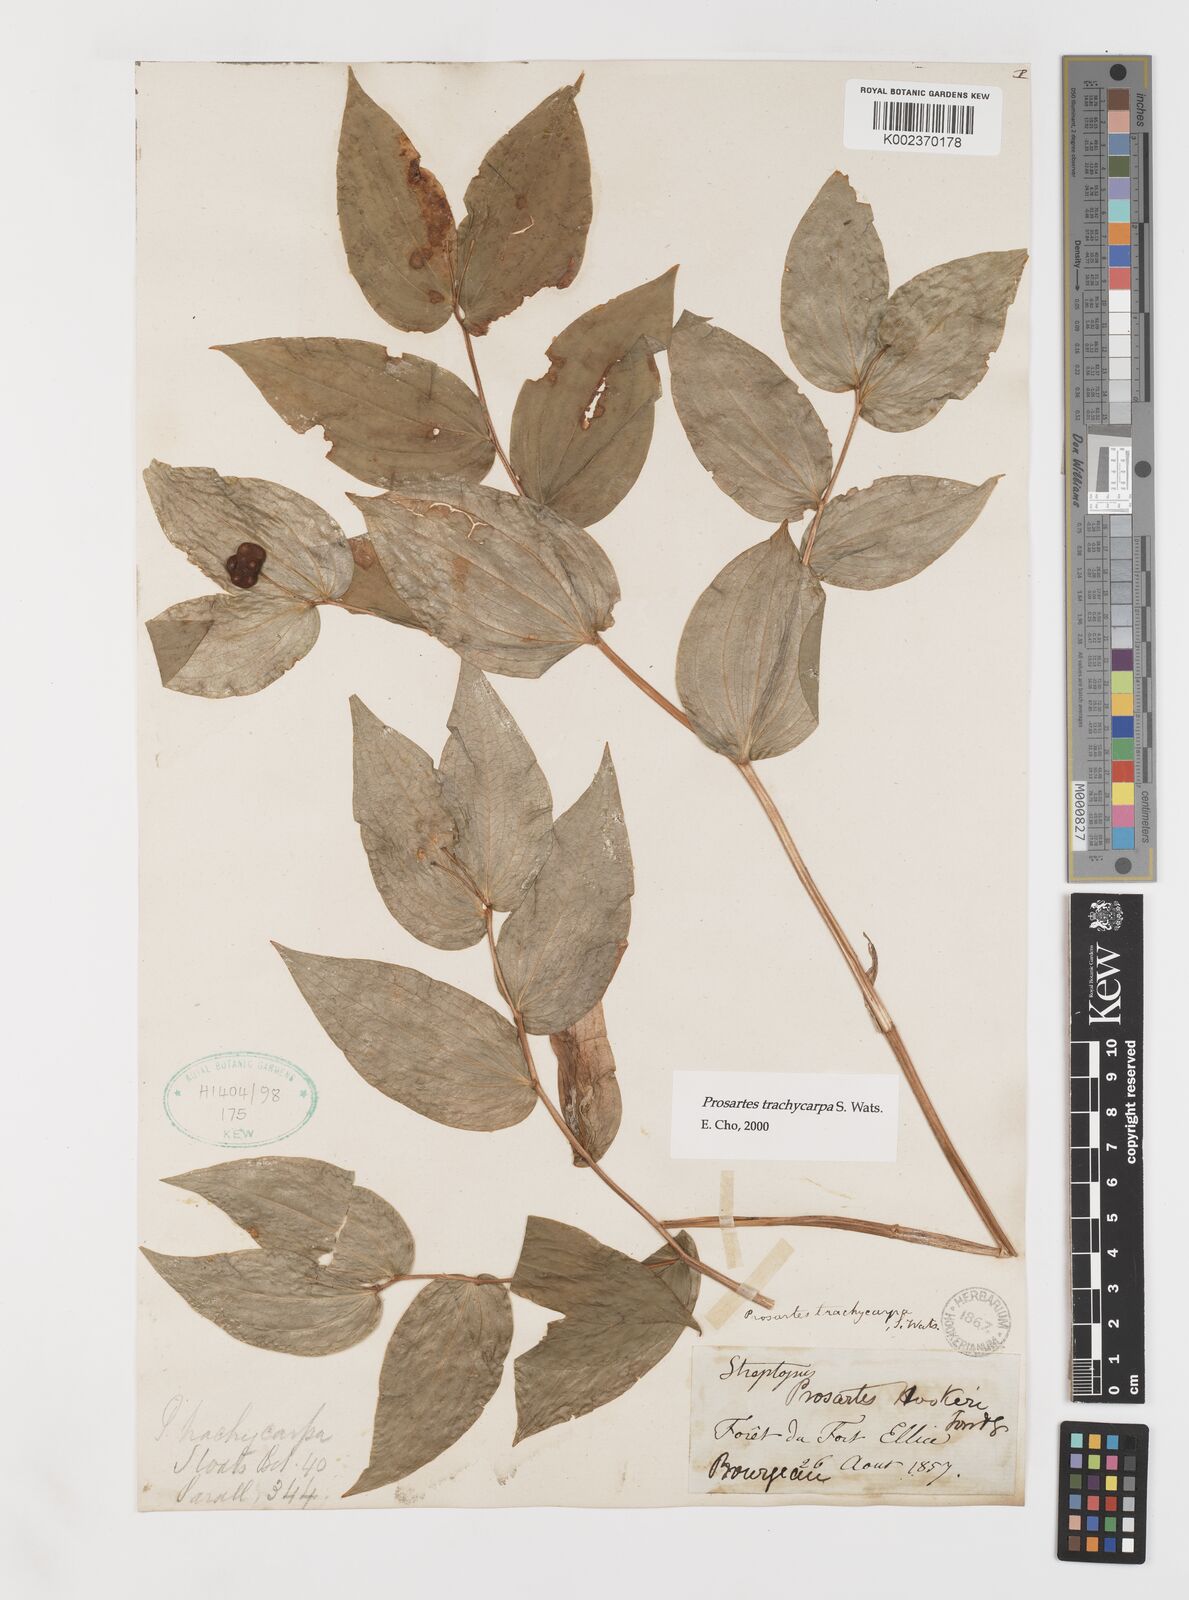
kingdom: Plantae
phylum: Tracheophyta
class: Liliopsida
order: Liliales
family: Liliaceae
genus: Prosartes
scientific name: Prosartes trachycarpa
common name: Rough-fruit fairy-bells
